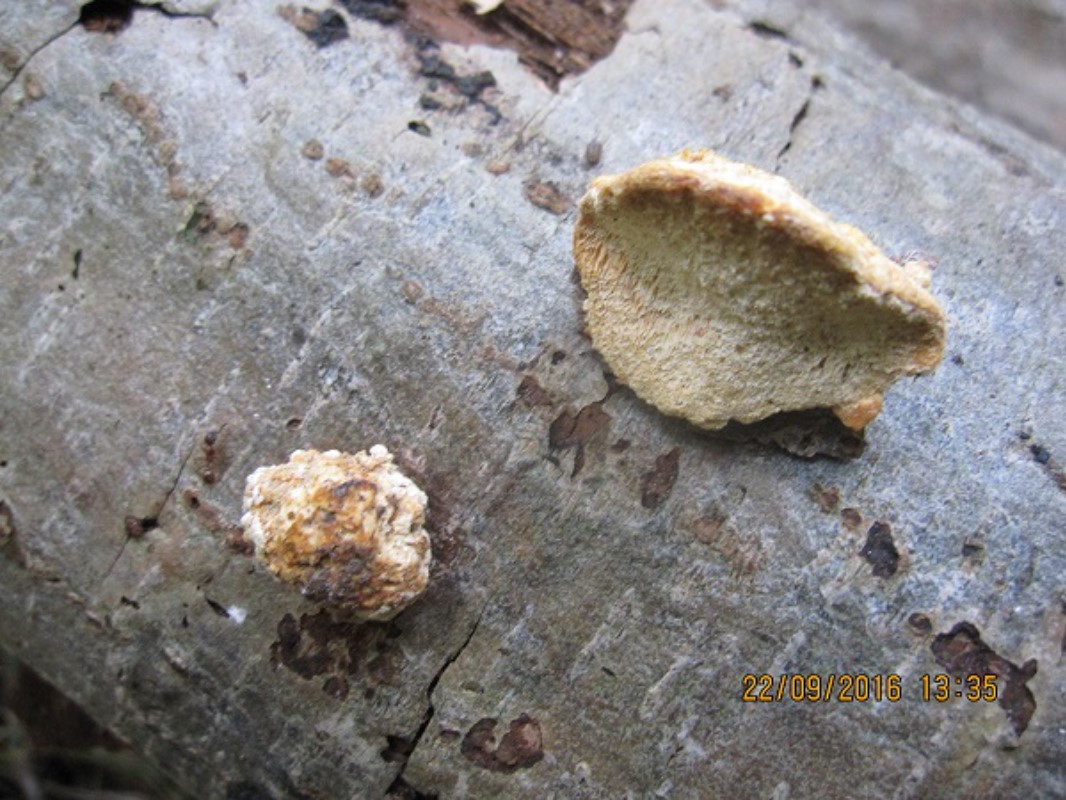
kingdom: Fungi
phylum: Basidiomycota
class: Agaricomycetes
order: Polyporales
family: Steccherinaceae
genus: Antrodiella
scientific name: Antrodiella serpula
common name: gulrandet elastikporesvamp
